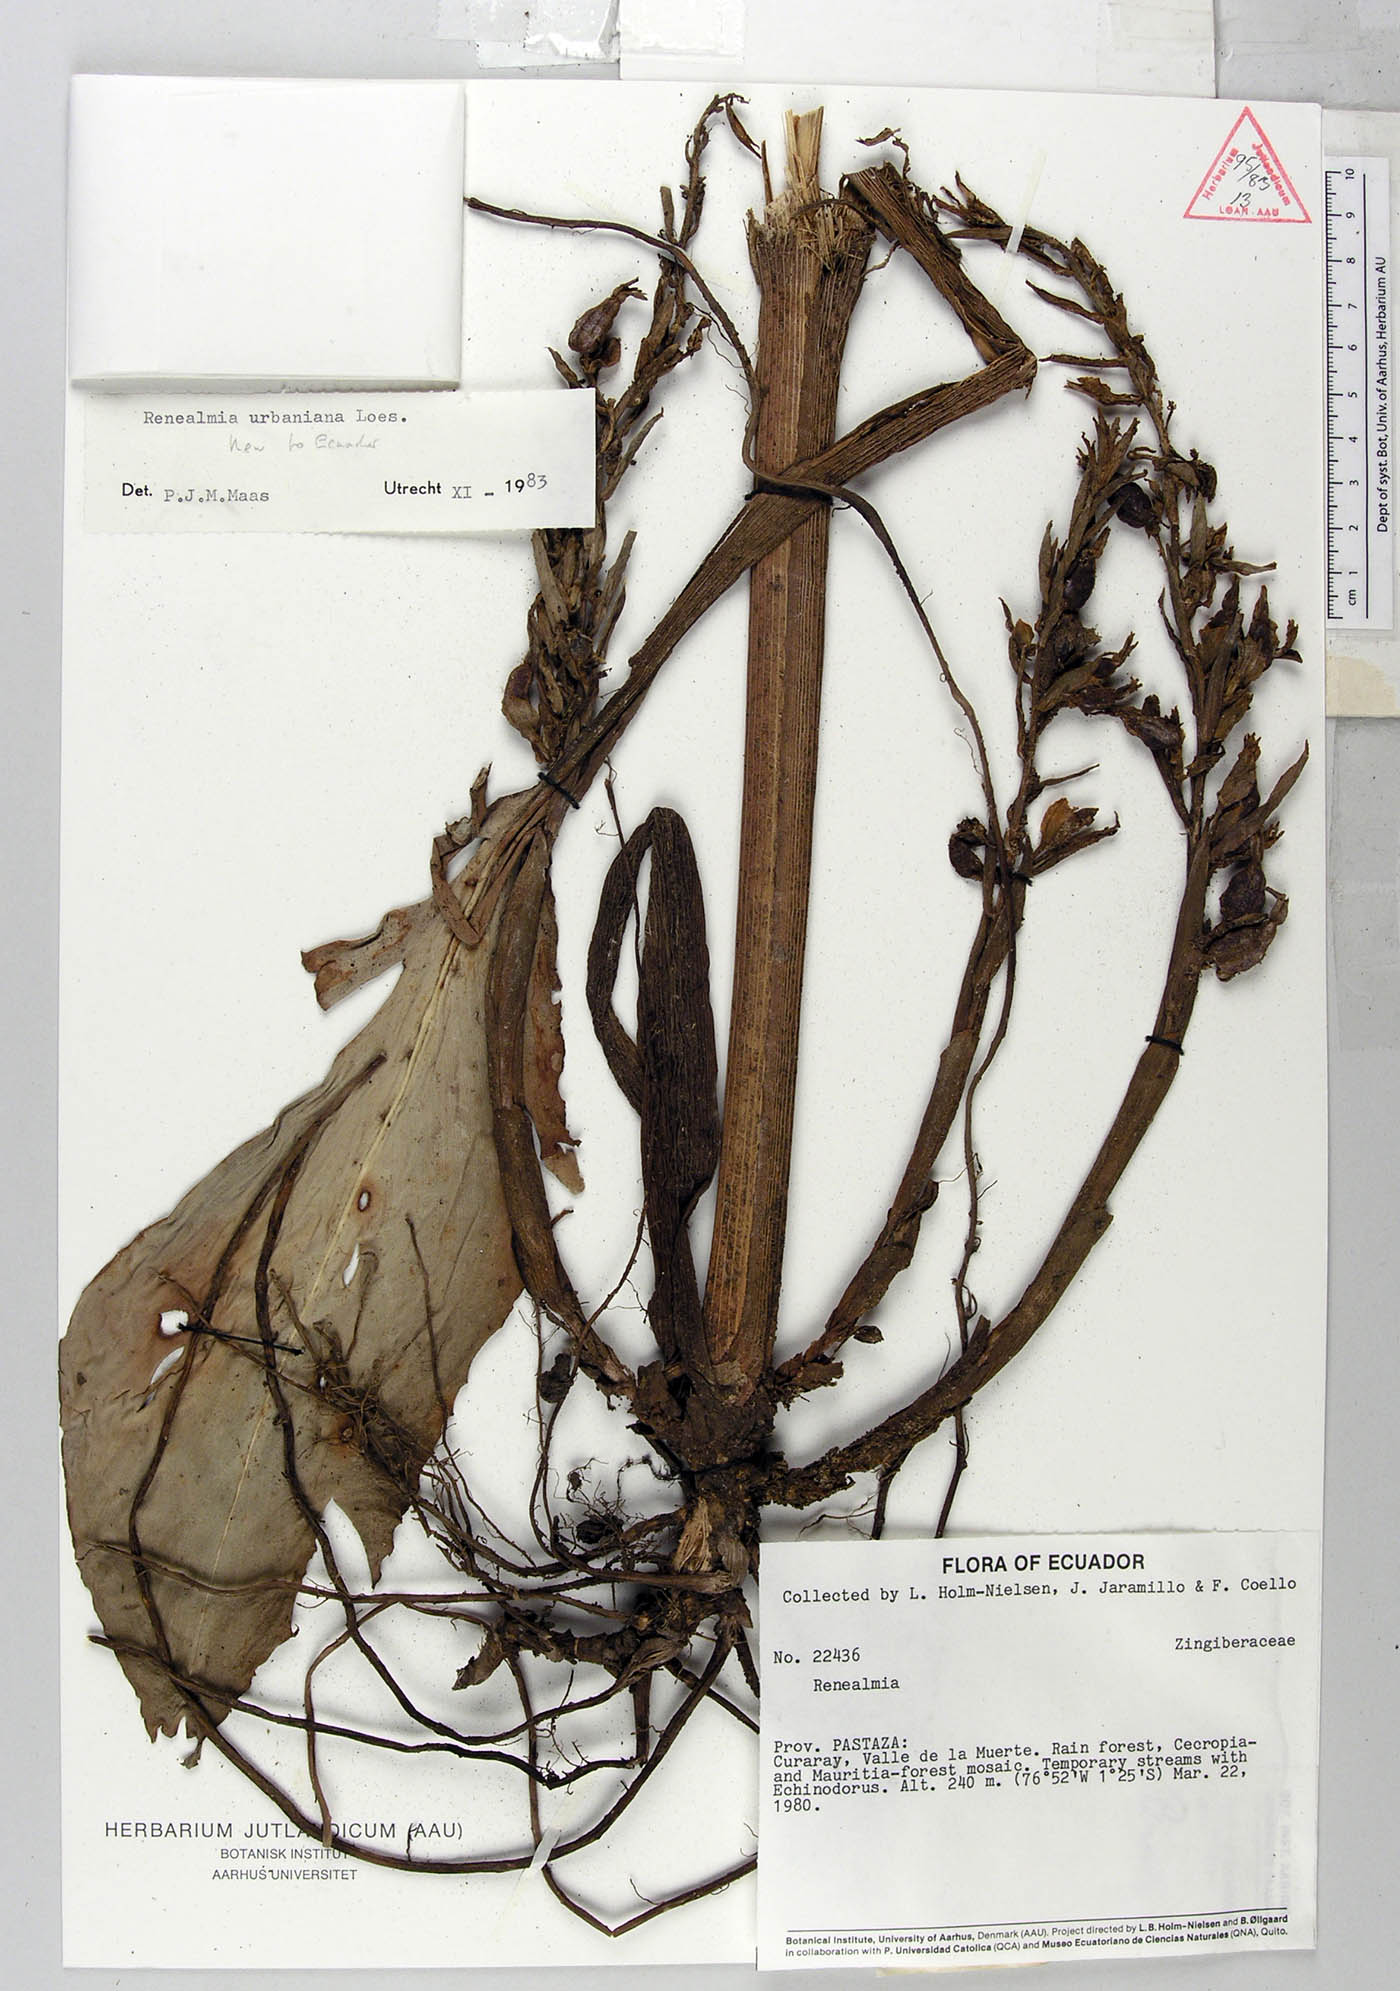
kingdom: Plantae
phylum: Tracheophyta
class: Liliopsida
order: Zingiberales
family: Zingiberaceae
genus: Renealmia
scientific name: Renealmia urbaniana
